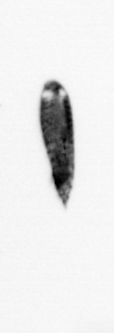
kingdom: Animalia
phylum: Arthropoda
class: Copepoda
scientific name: Copepoda
